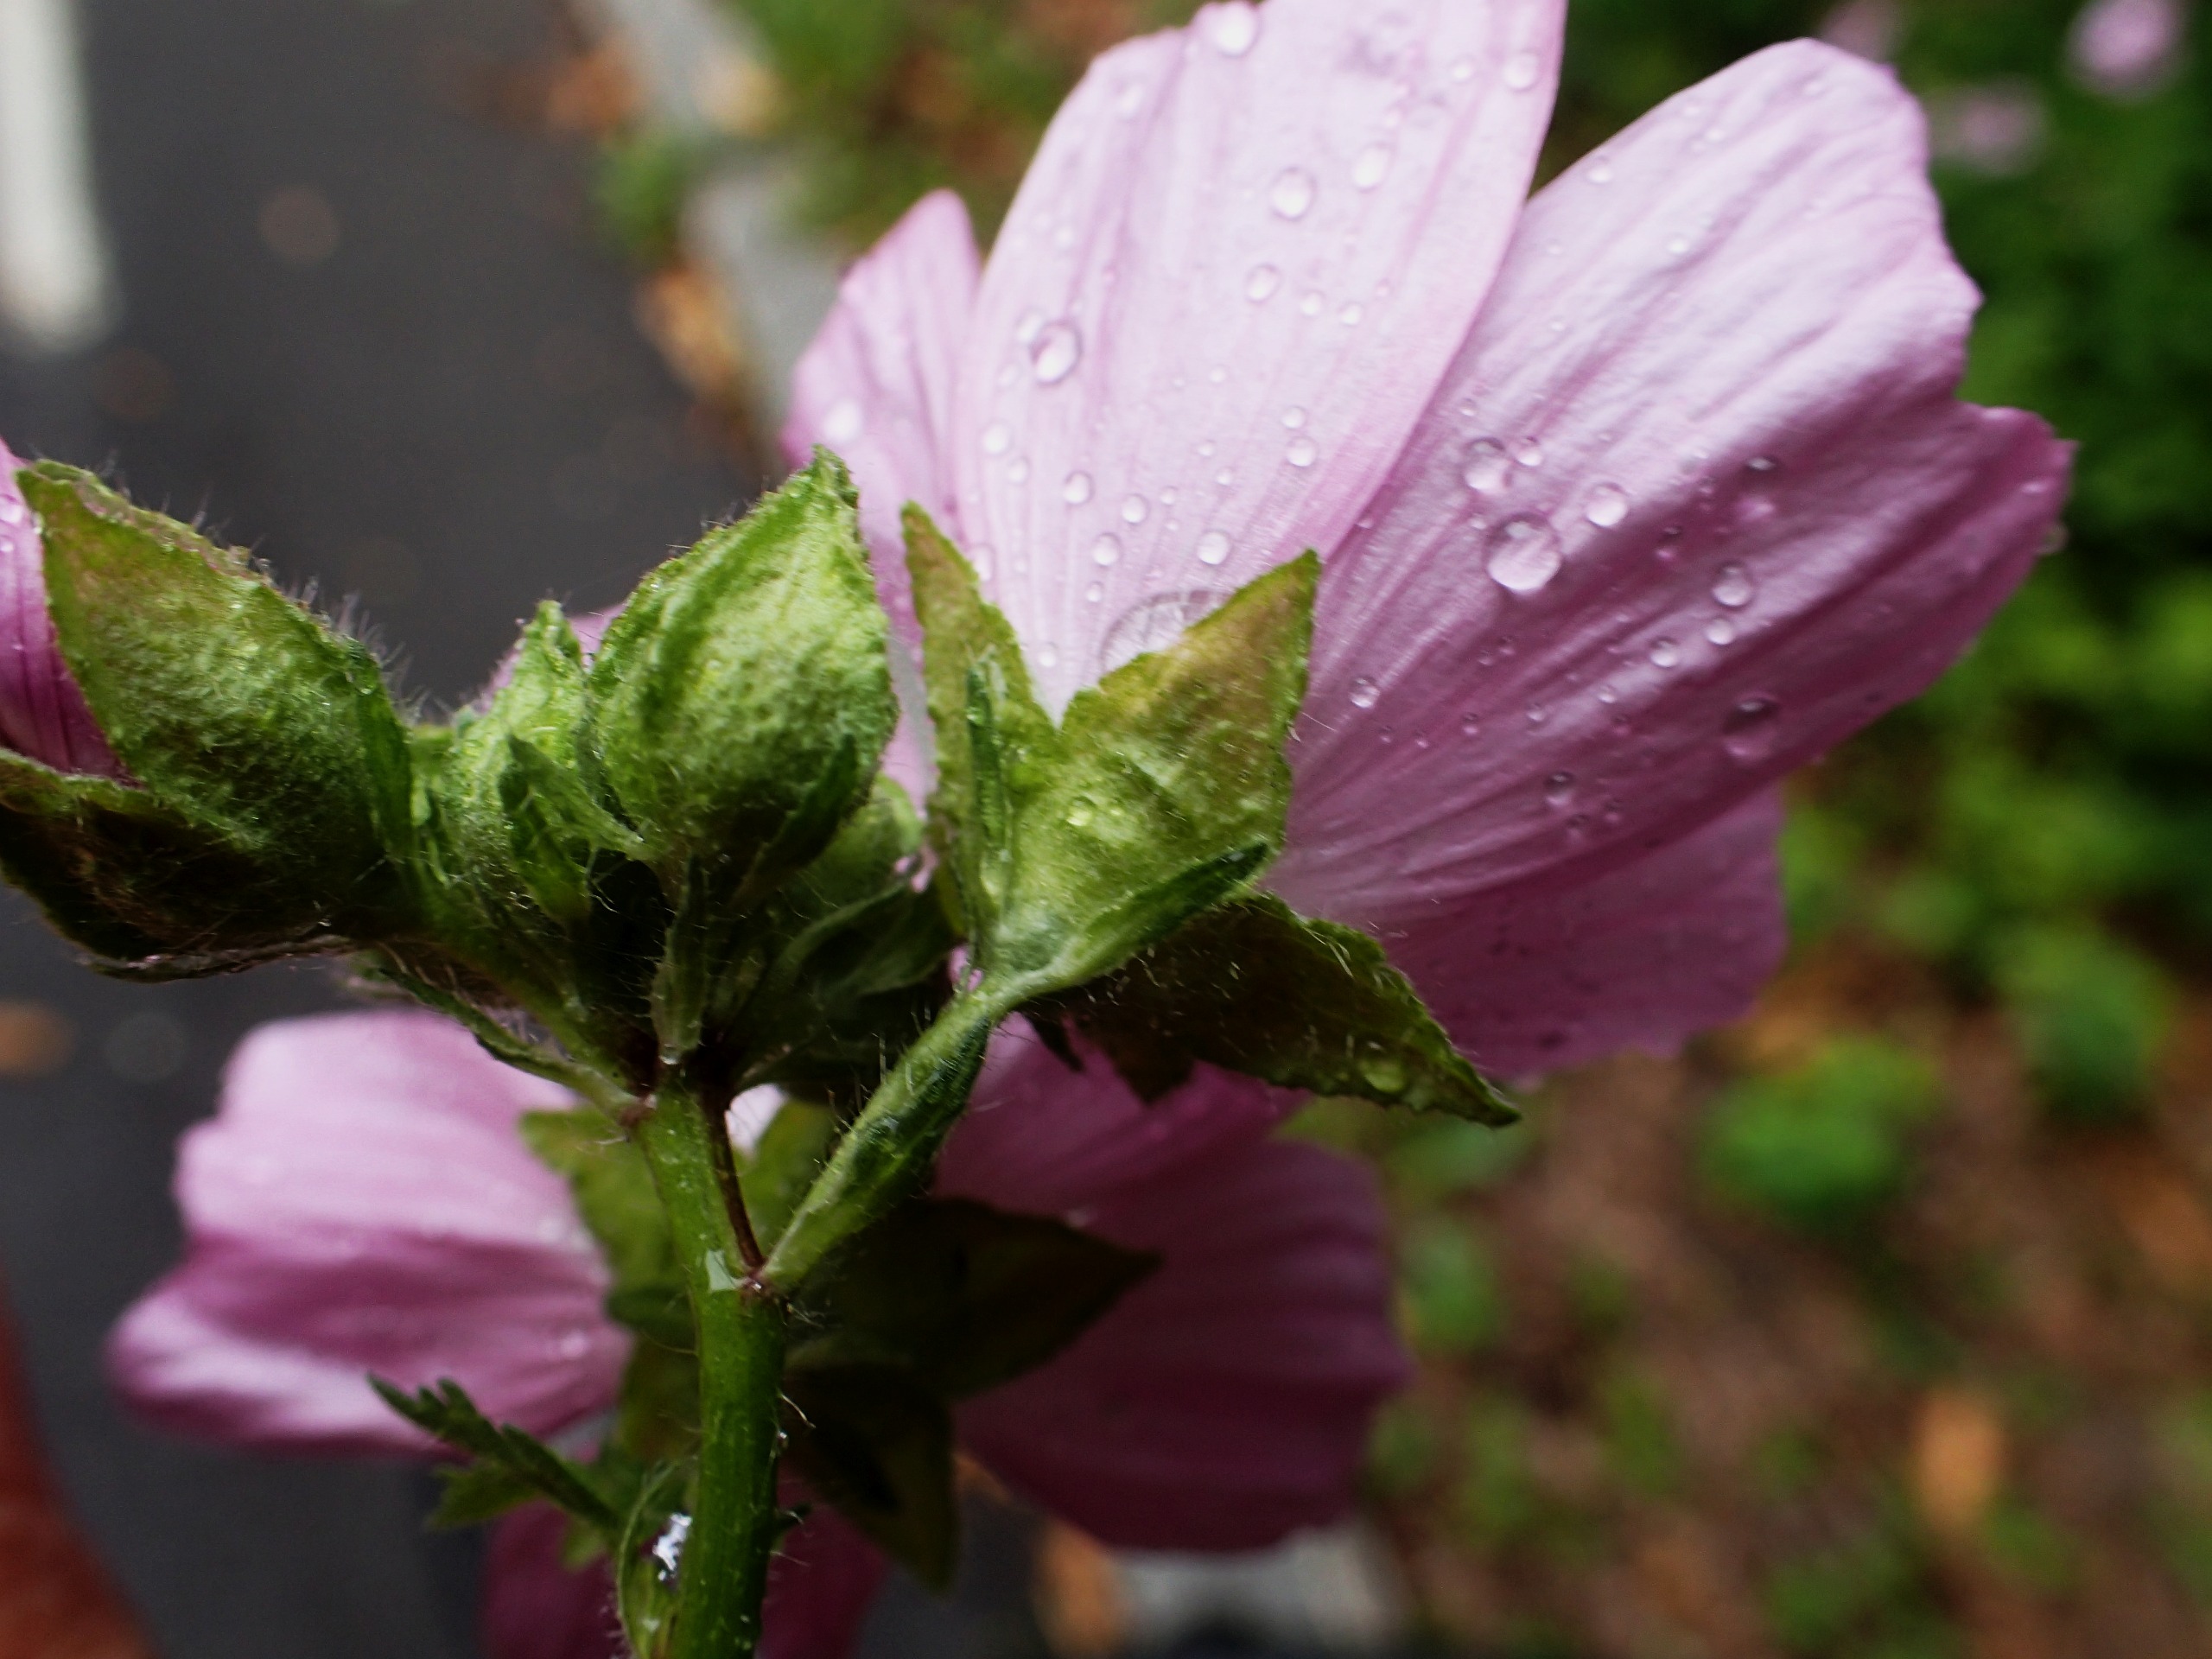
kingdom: Plantae
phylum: Tracheophyta
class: Magnoliopsida
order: Malvales
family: Malvaceae
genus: Malva
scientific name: Malva moschata
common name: Moskus-katost
